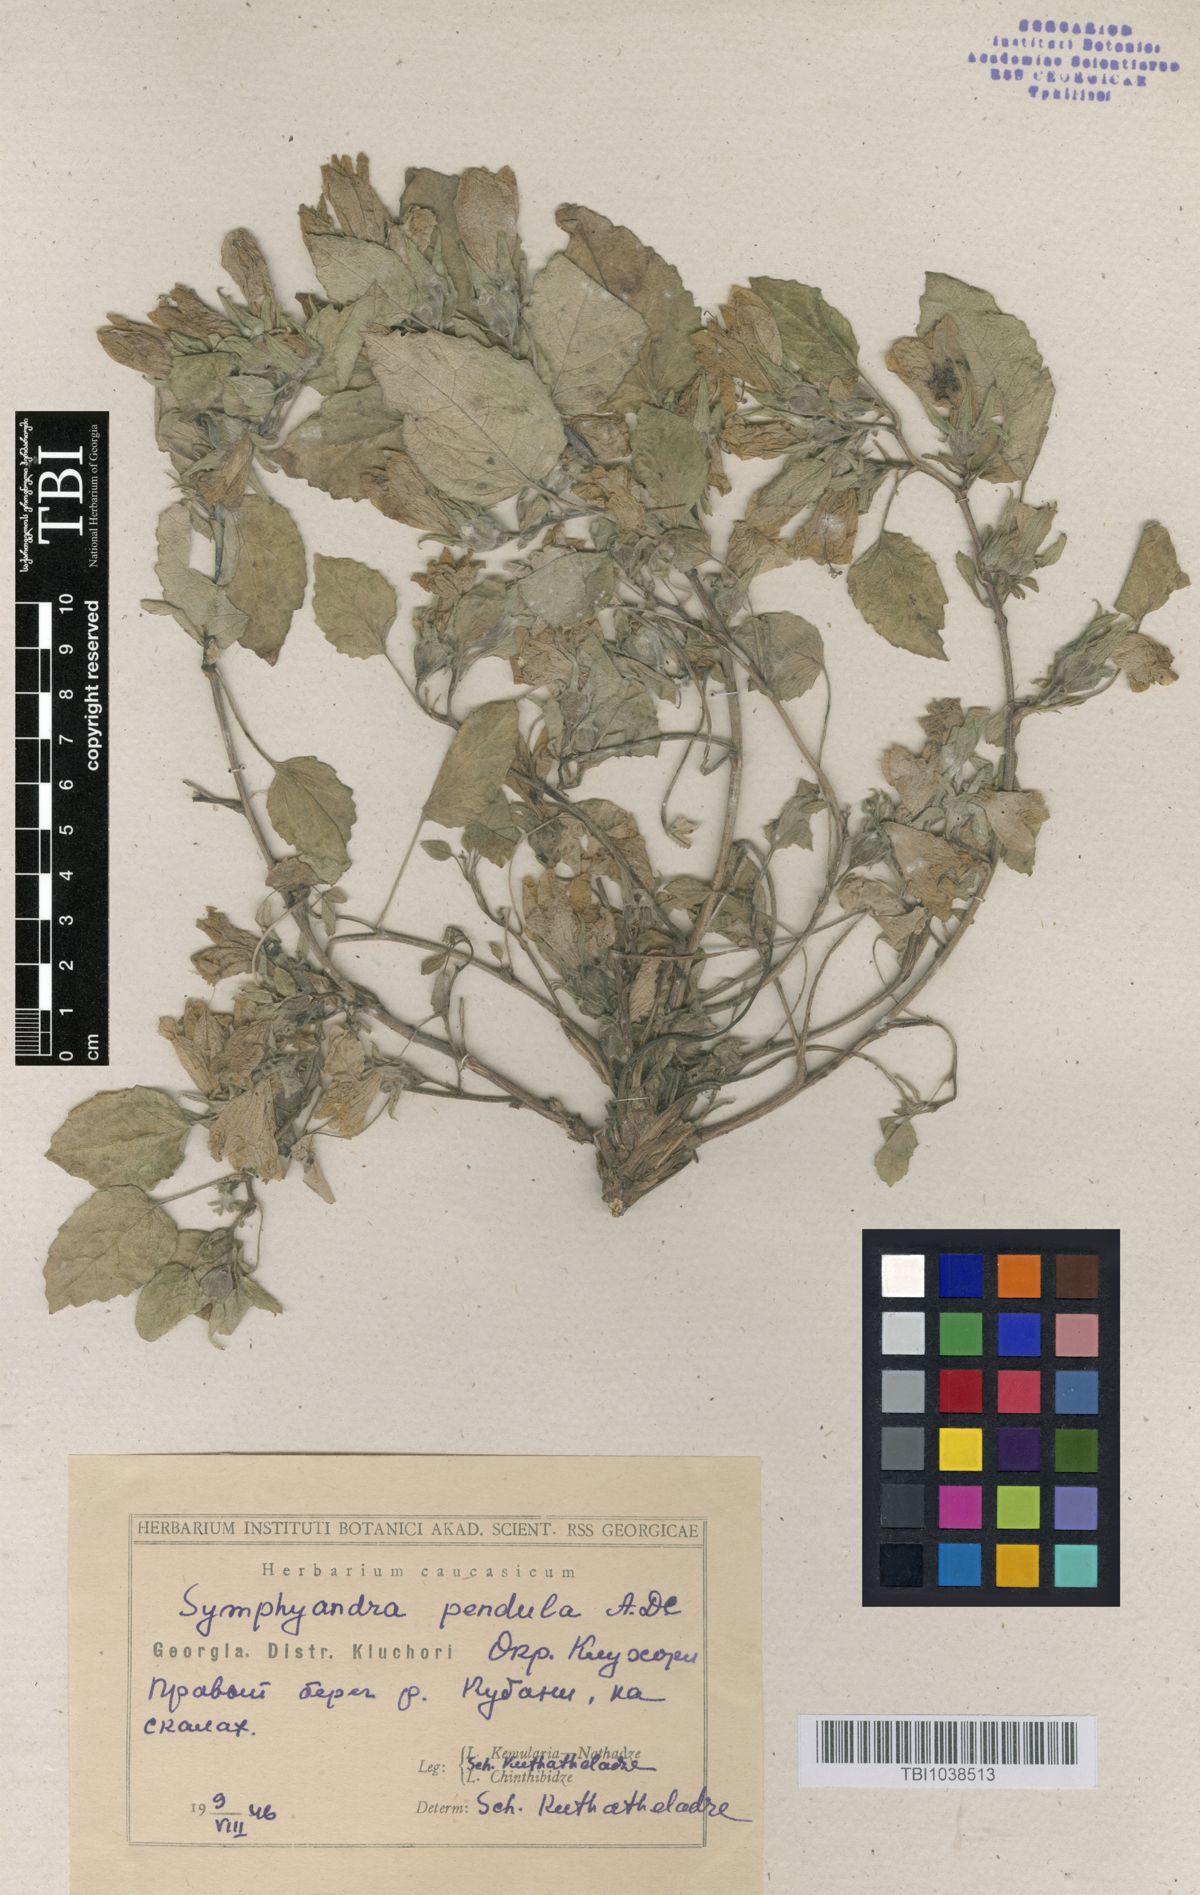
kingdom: Plantae
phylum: Tracheophyta
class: Magnoliopsida
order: Asterales
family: Campanulaceae
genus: Campanula
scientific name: Campanula pendula
